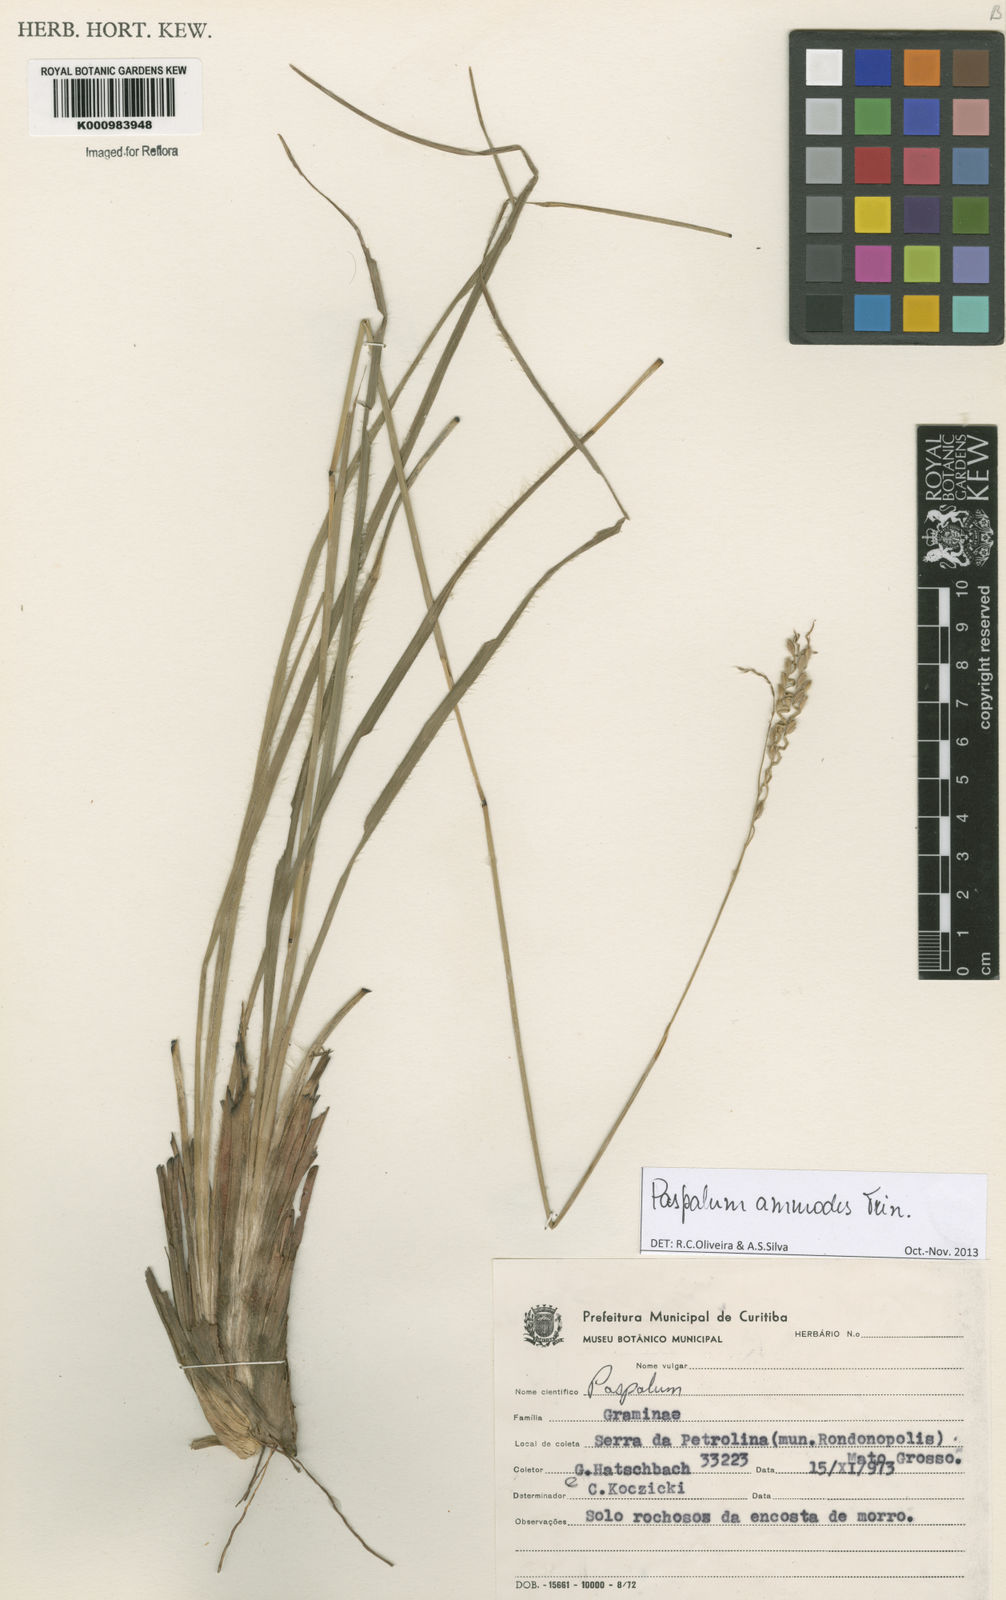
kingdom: Plantae
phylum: Tracheophyta
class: Liliopsida
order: Poales
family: Poaceae
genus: Paspalum
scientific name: Paspalum ammodes
